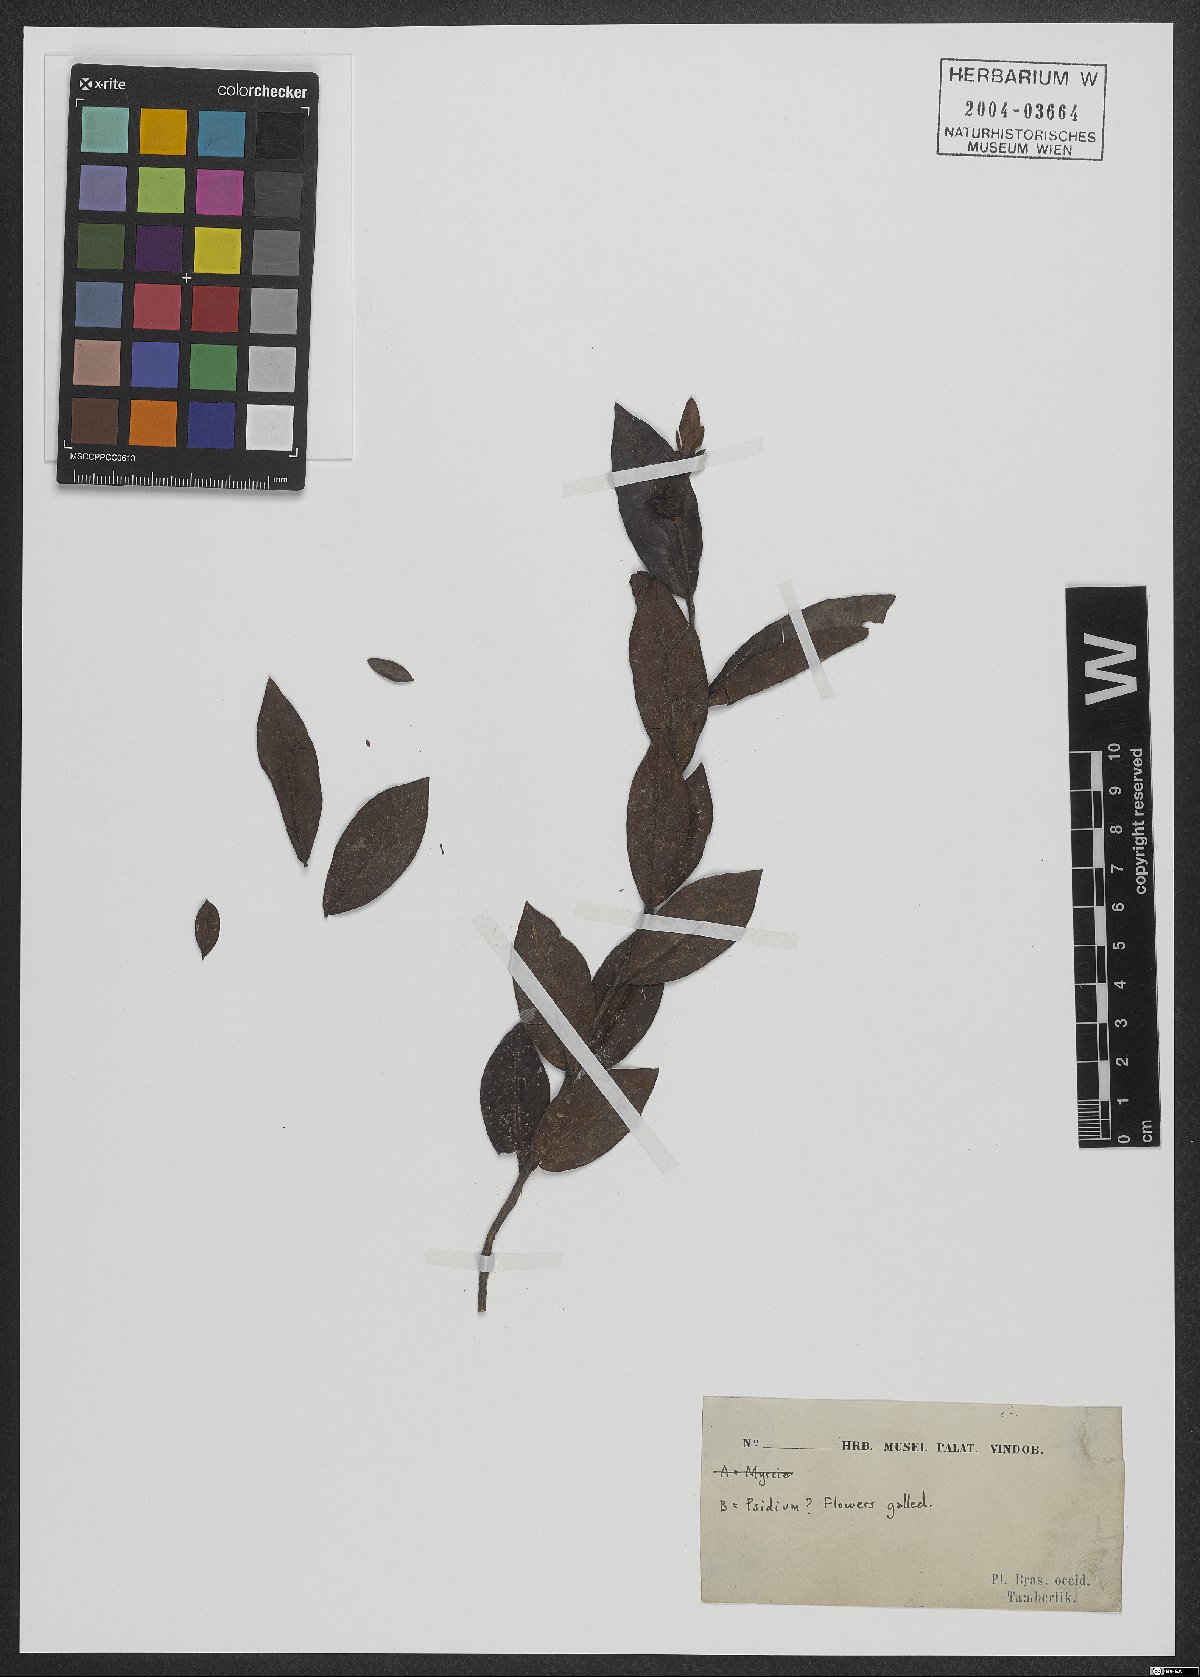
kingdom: Plantae
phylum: Tracheophyta
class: Magnoliopsida
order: Myrtales
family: Myrtaceae
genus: Psidium
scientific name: Psidium
